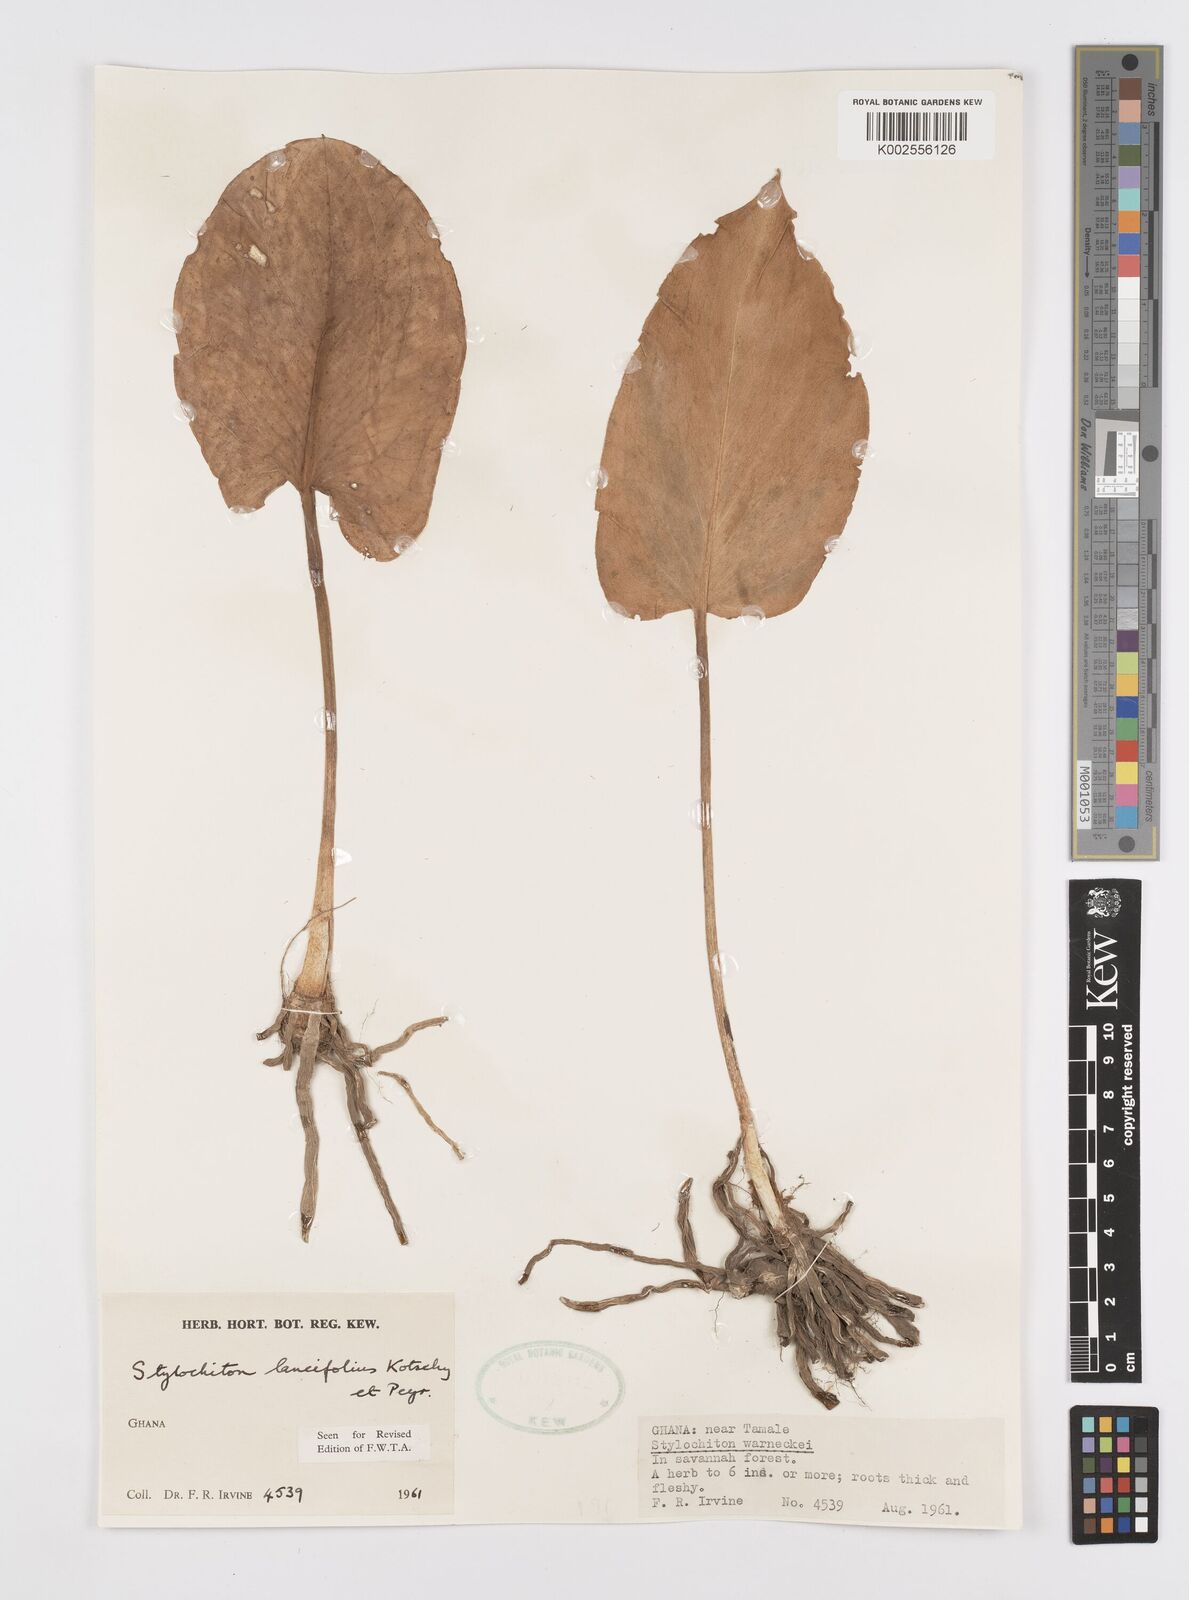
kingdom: Plantae
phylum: Tracheophyta
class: Liliopsida
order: Alismatales
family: Araceae
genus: Stylochaeton
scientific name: Stylochaeton lancifolium
